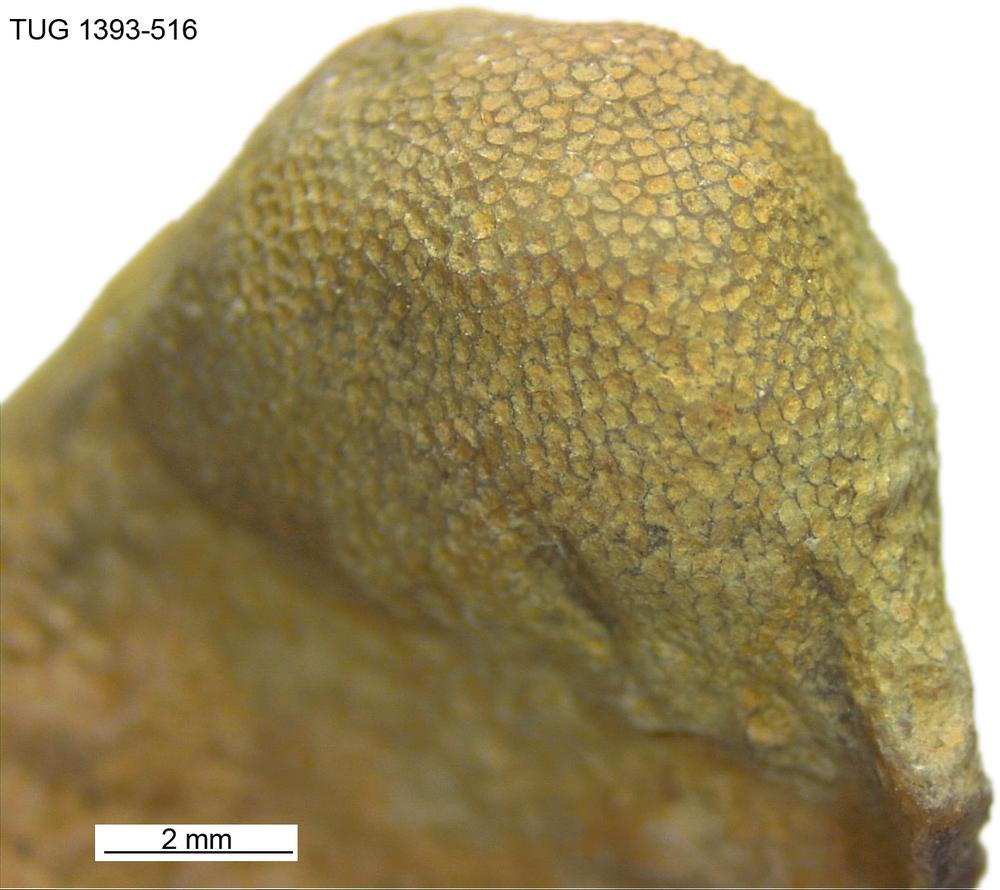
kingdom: Animalia
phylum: Bryozoa
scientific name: Bryozoa
